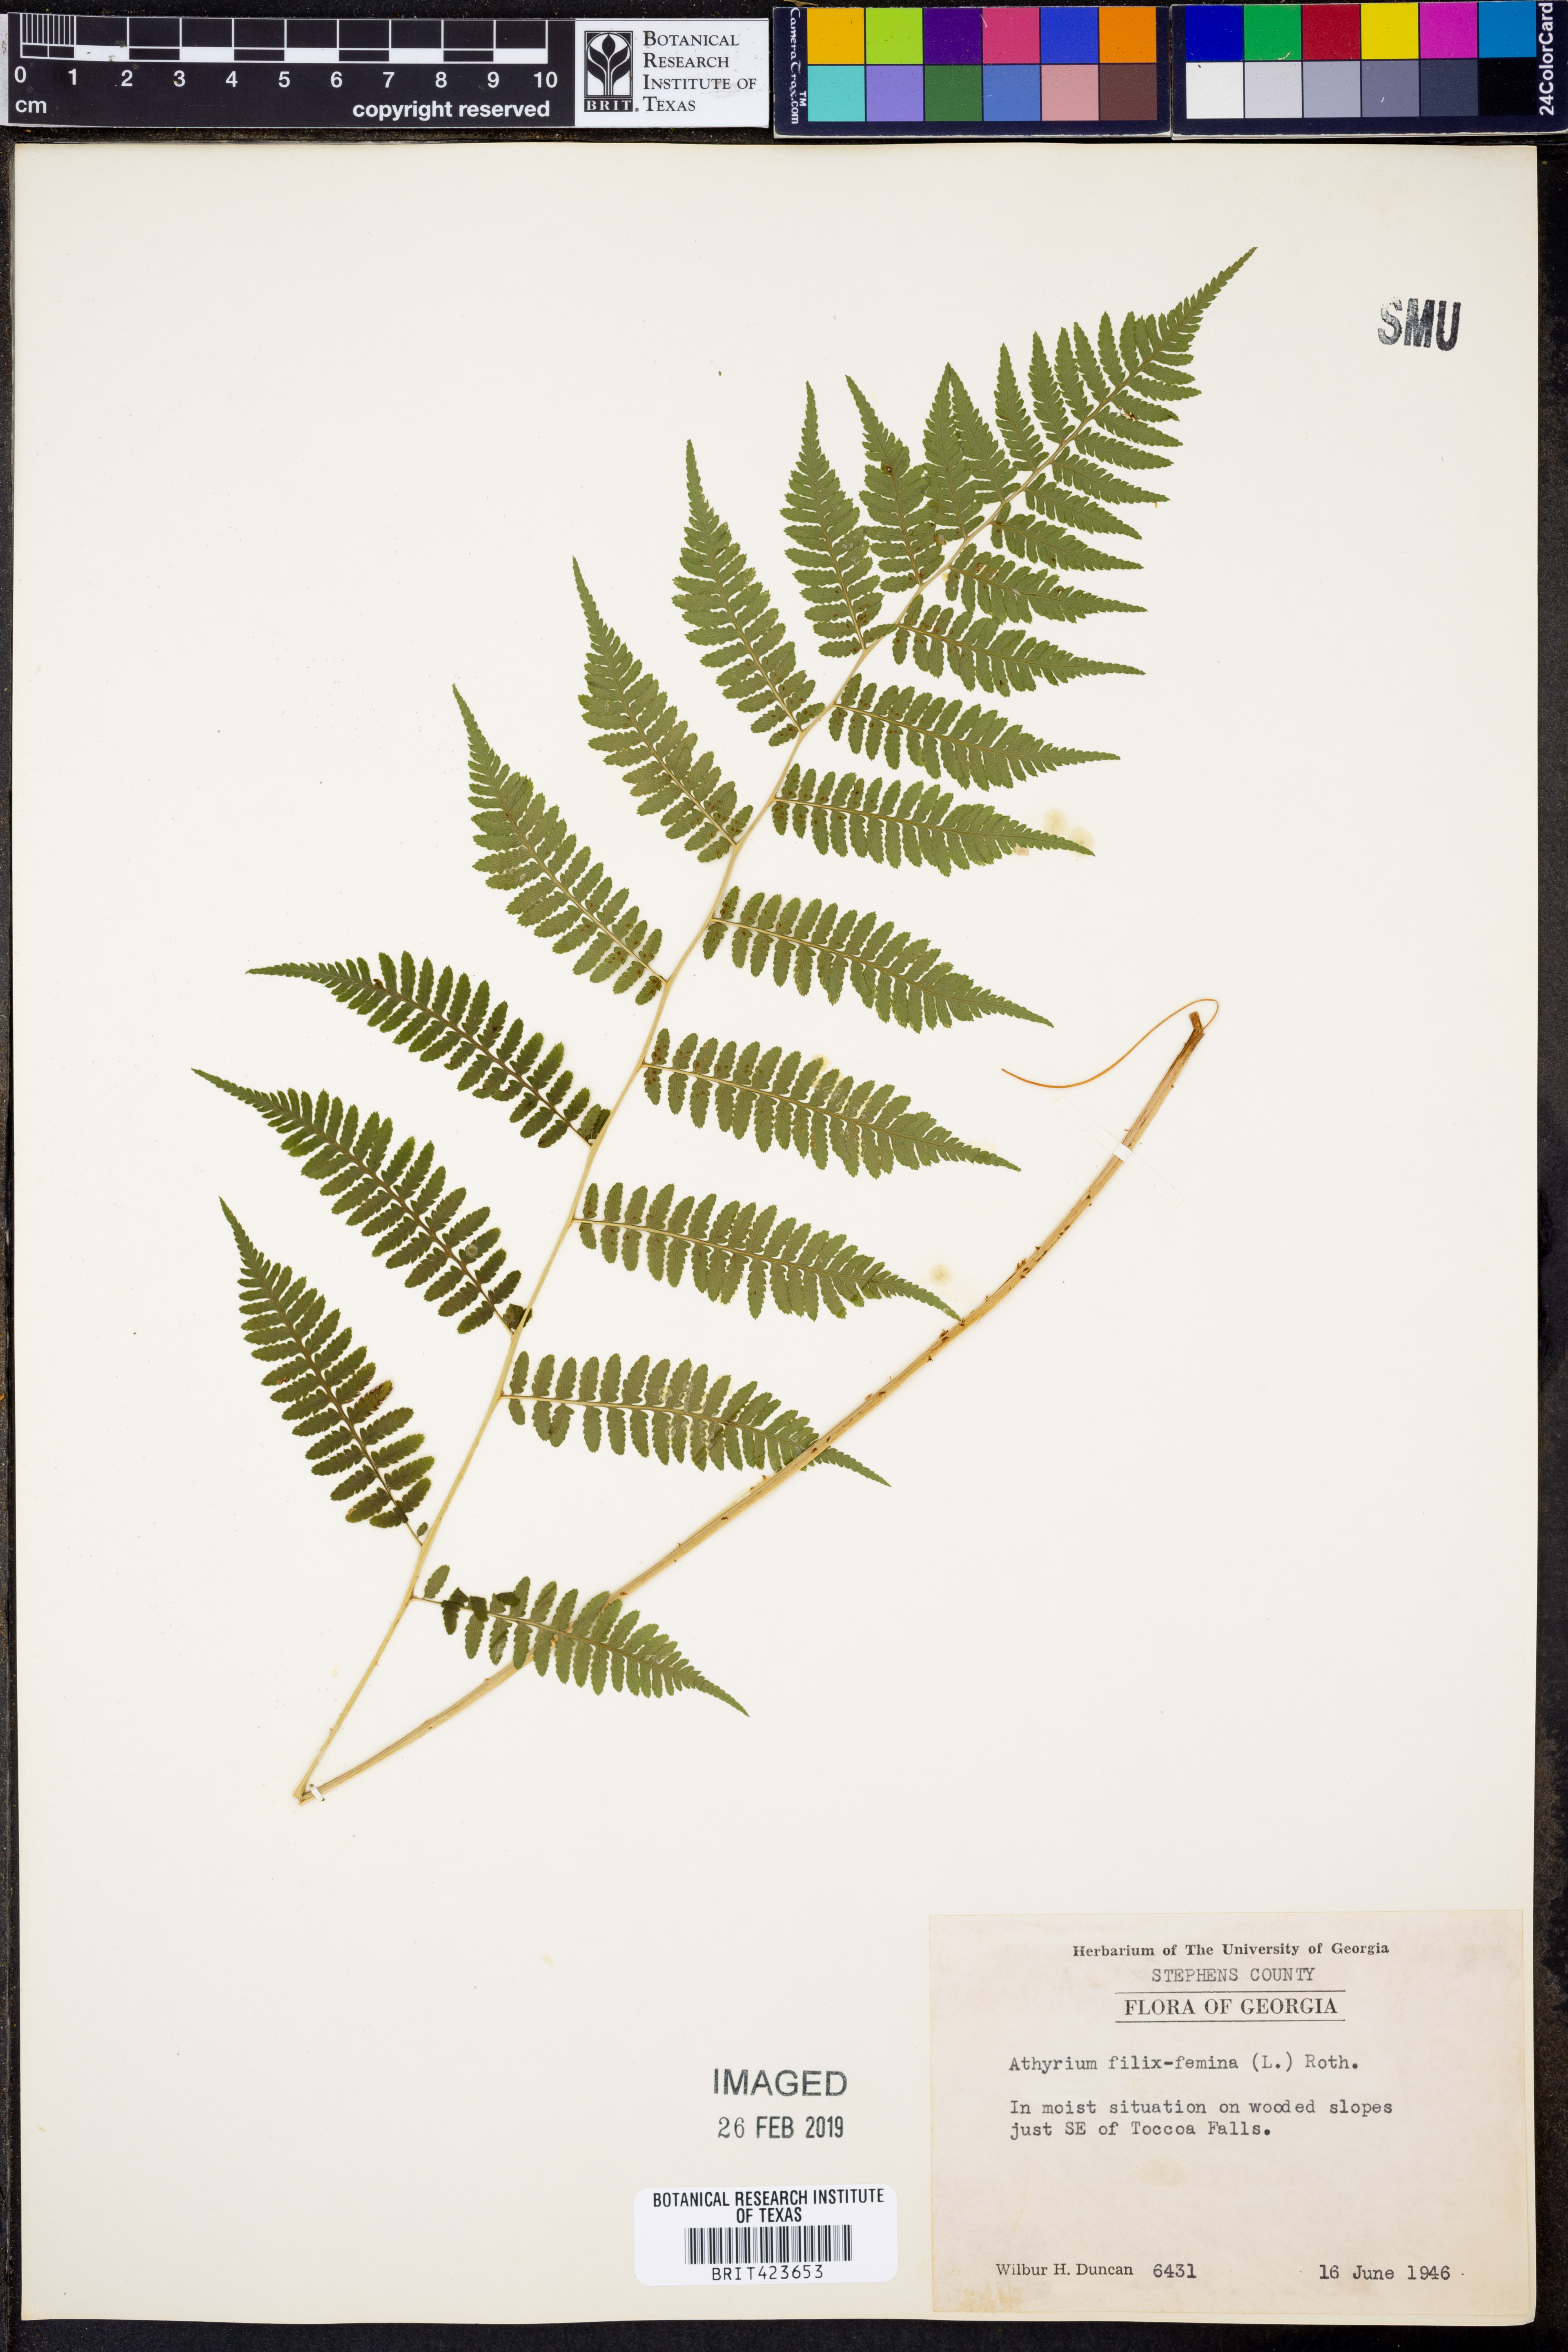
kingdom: Plantae
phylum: Tracheophyta
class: Polypodiopsida
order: Polypodiales
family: Athyriaceae
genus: Athyrium
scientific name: Athyrium filix-femina
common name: Lady fern
